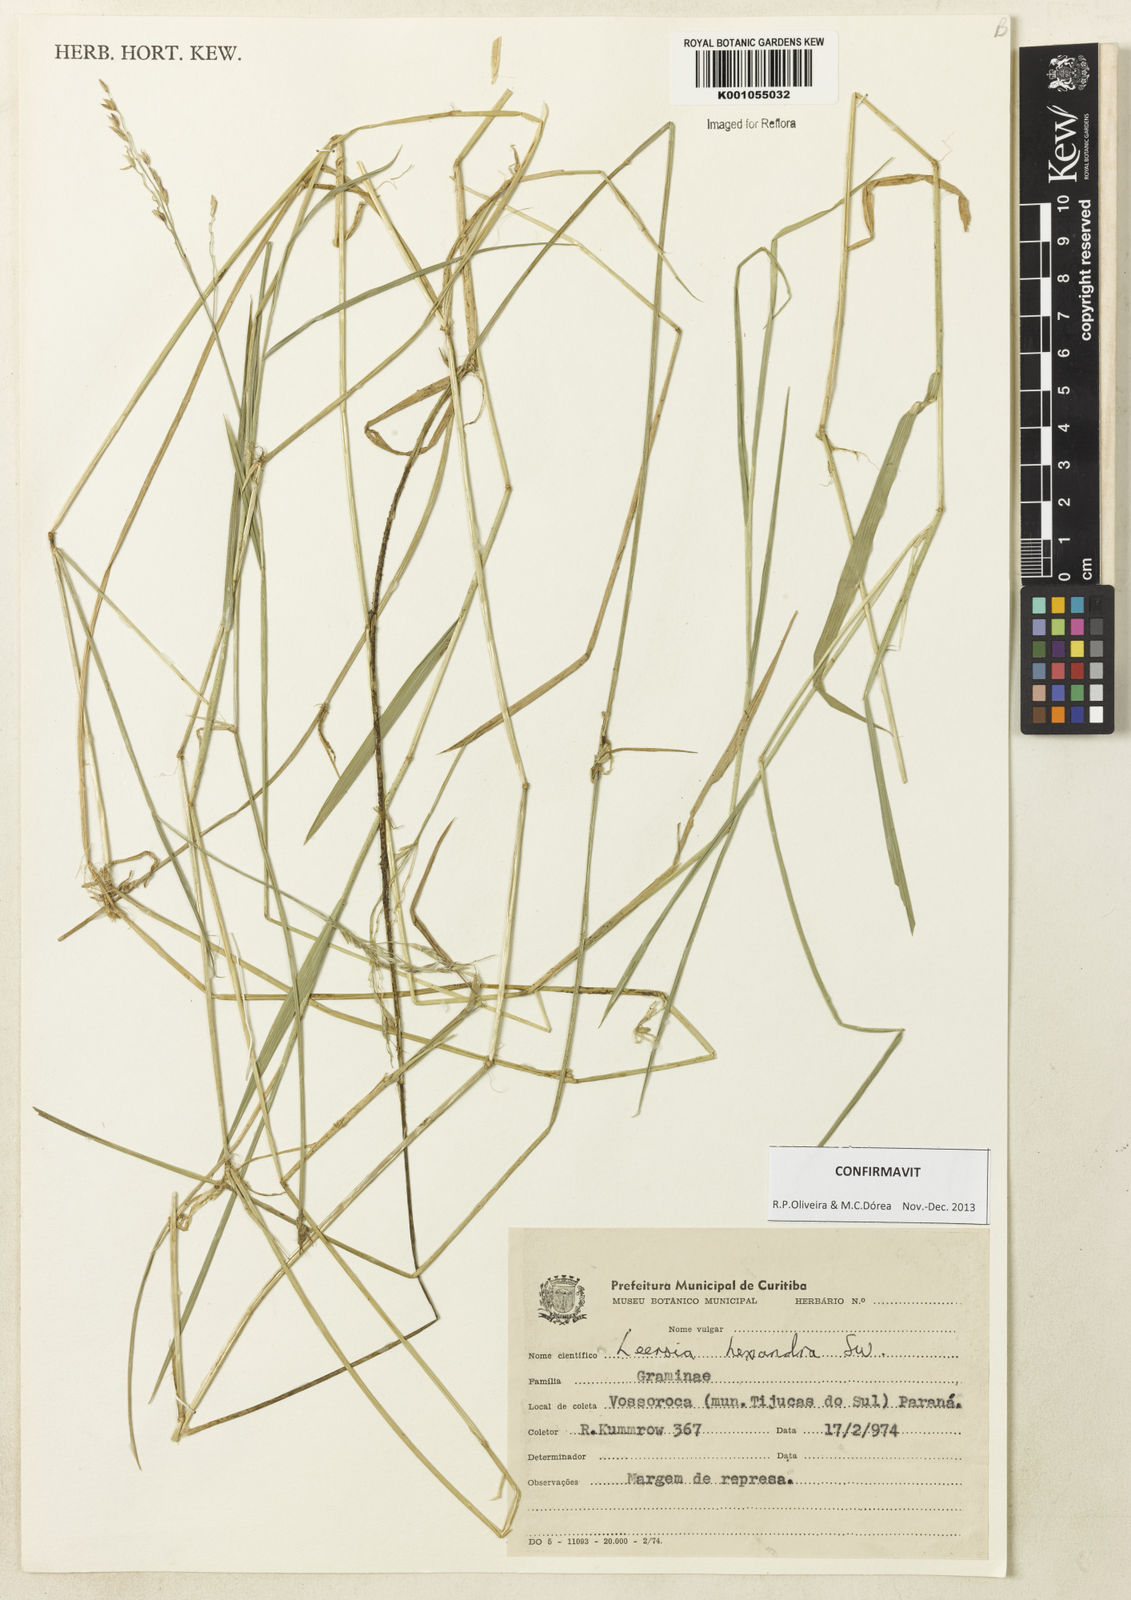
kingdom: Plantae
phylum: Tracheophyta
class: Liliopsida
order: Poales
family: Poaceae
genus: Leersia
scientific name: Leersia hexandra
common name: Southern cut grass
